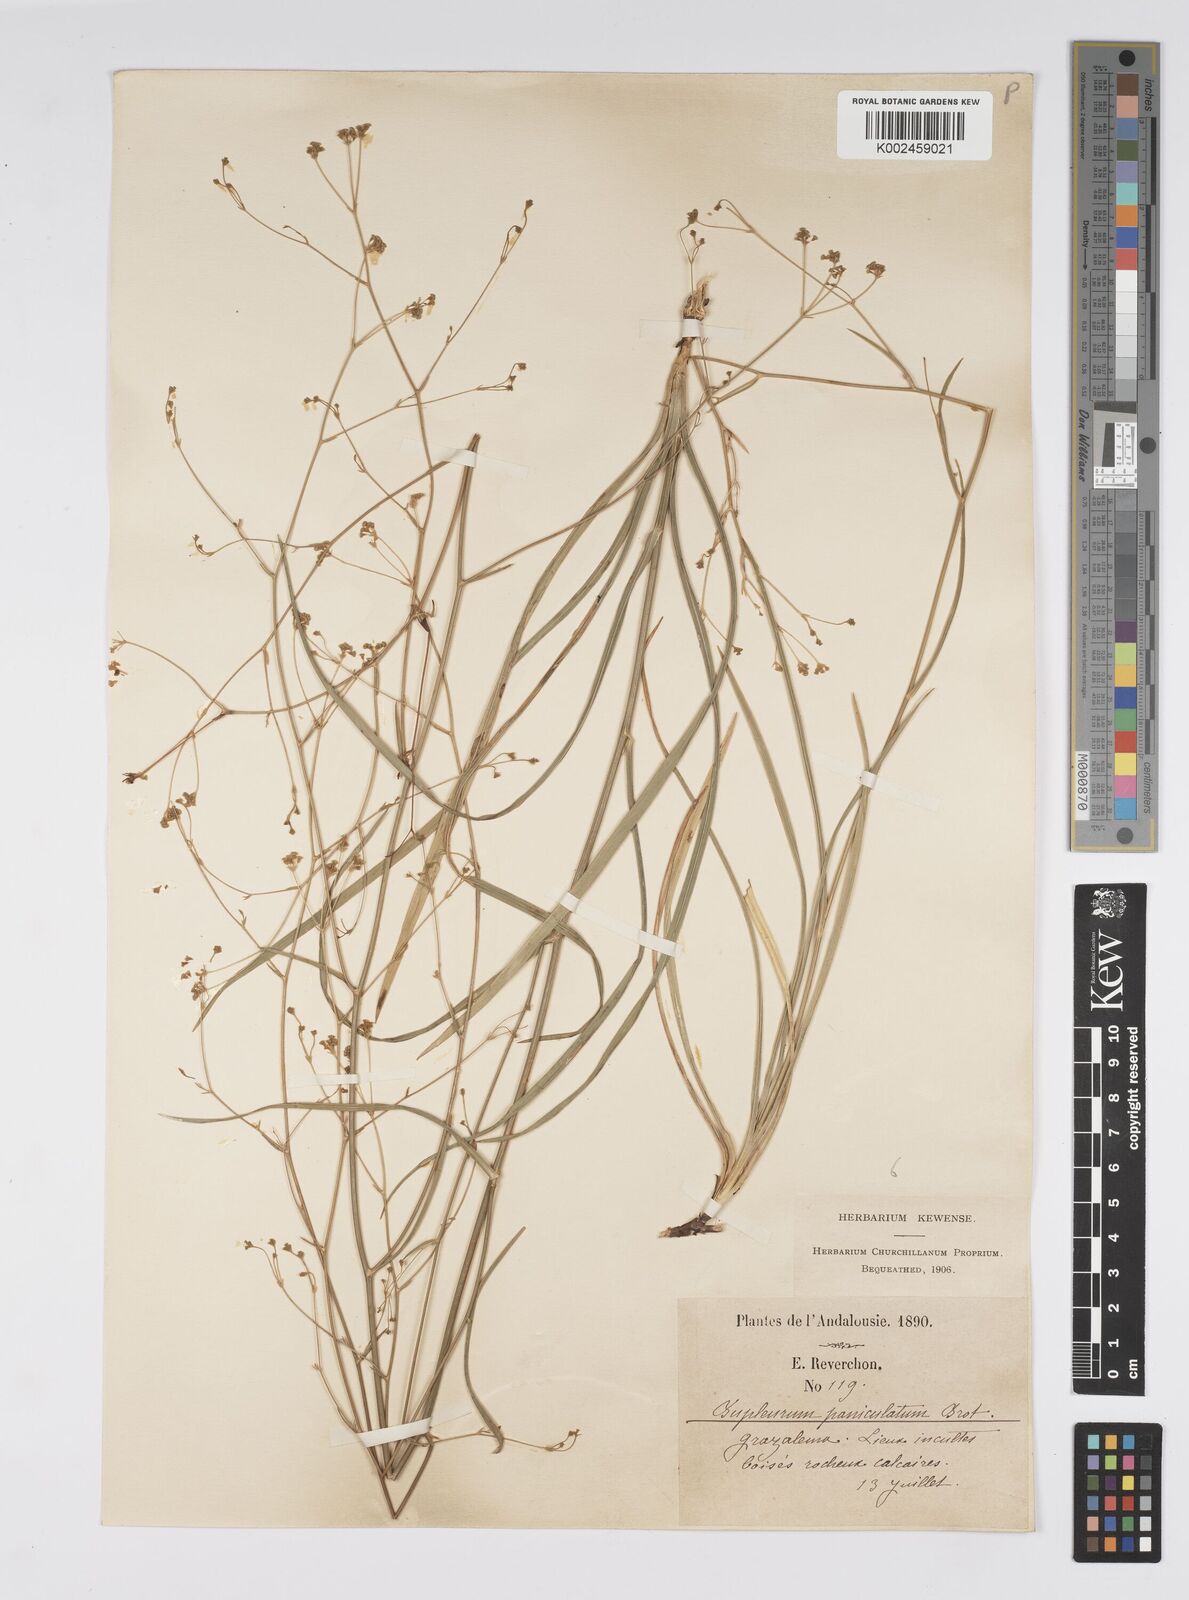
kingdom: Plantae
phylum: Tracheophyta
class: Magnoliopsida
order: Apiales
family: Apiaceae
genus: Bupleurum
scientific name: Bupleurum rigidum
